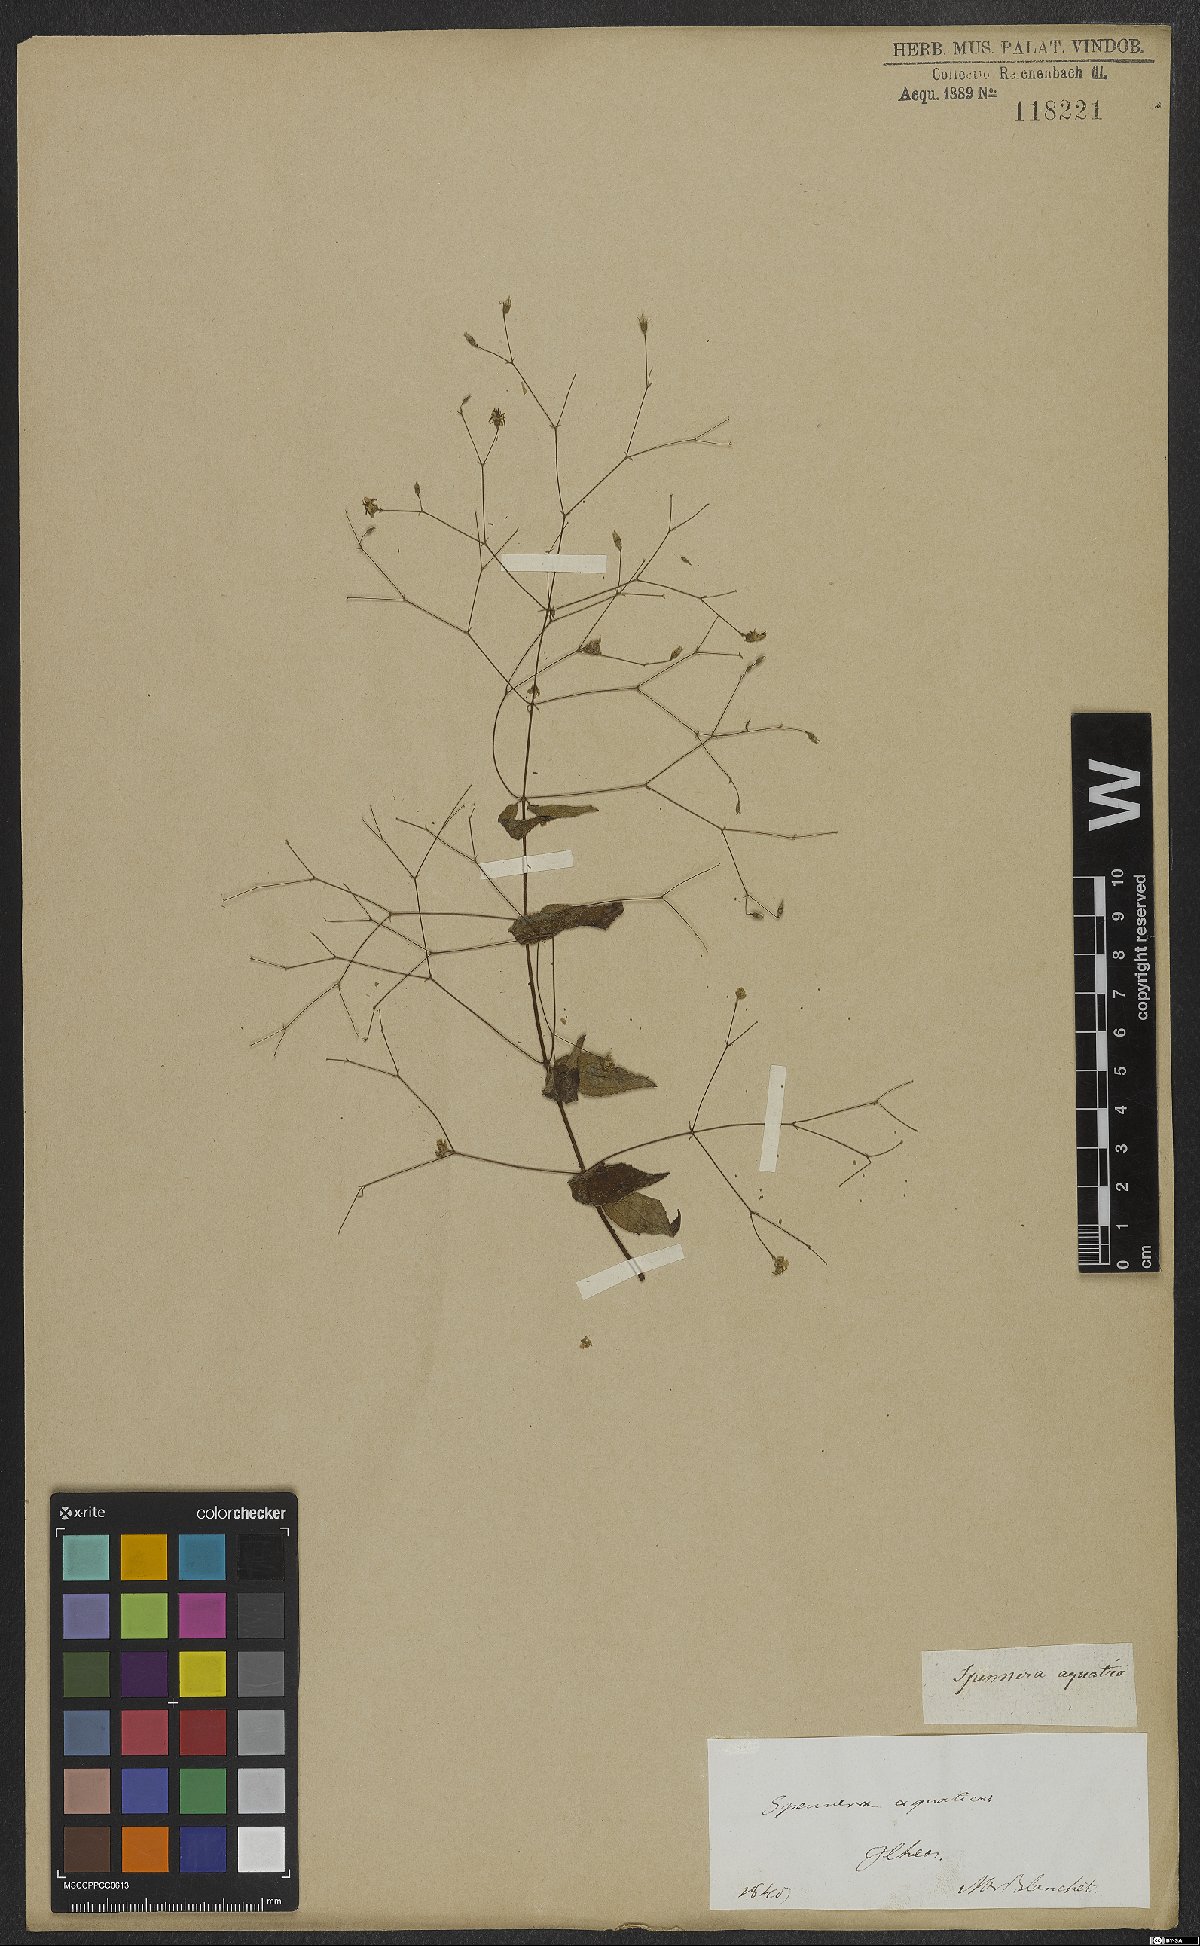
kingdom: Plantae
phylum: Tracheophyta
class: Magnoliopsida
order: Myrtales
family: Melastomataceae
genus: Nepsera
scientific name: Nepsera aquatica
